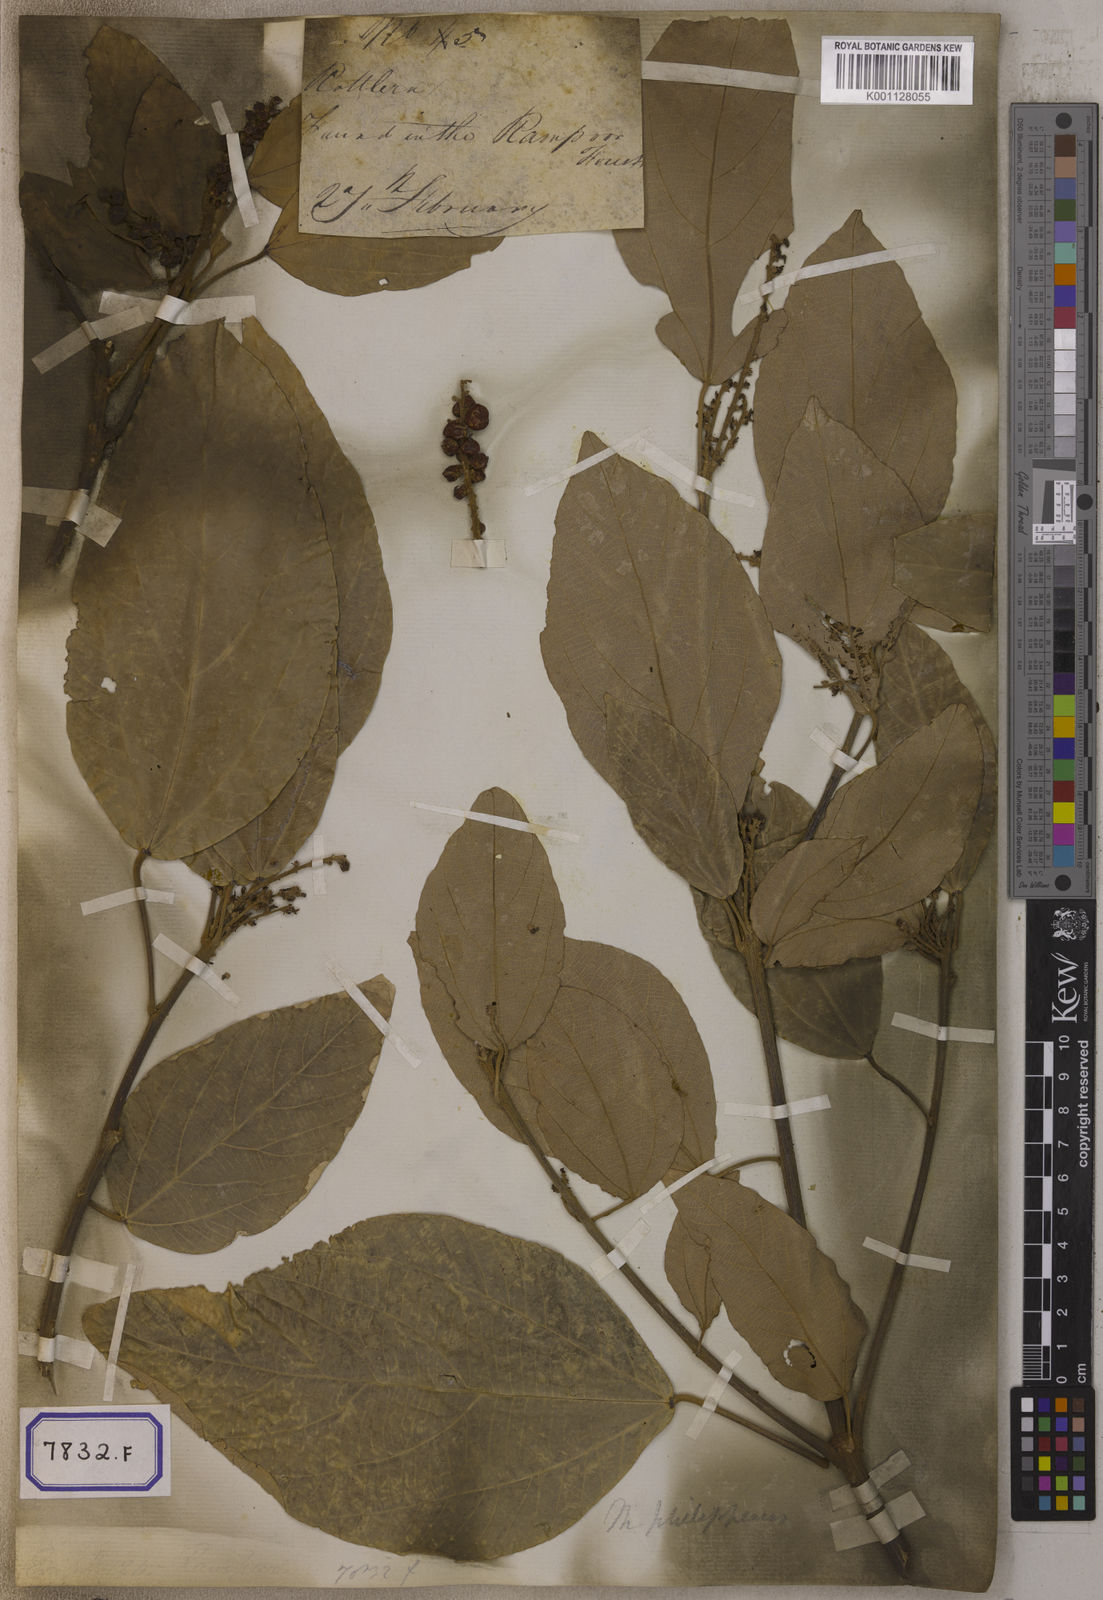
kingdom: Plantae
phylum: Tracheophyta
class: Magnoliopsida
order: Malpighiales
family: Euphorbiaceae
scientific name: Euphorbiaceae
